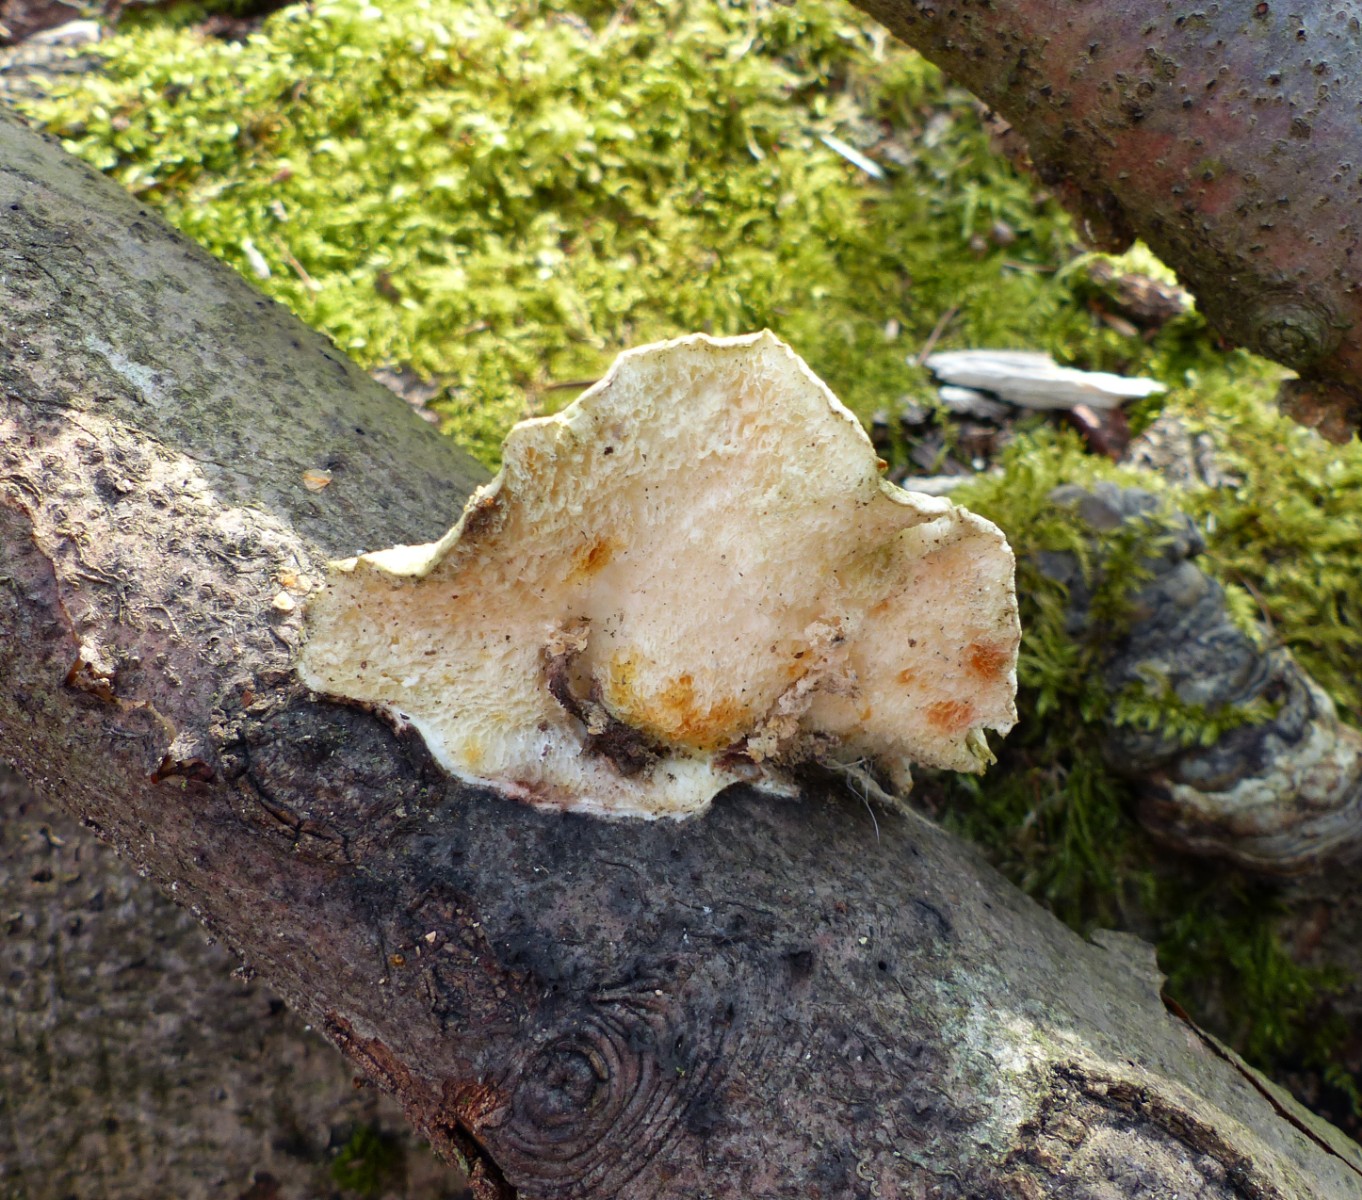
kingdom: Fungi
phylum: Basidiomycota
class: Agaricomycetes
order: Polyporales
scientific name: Polyporales
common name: poresvampordenen
